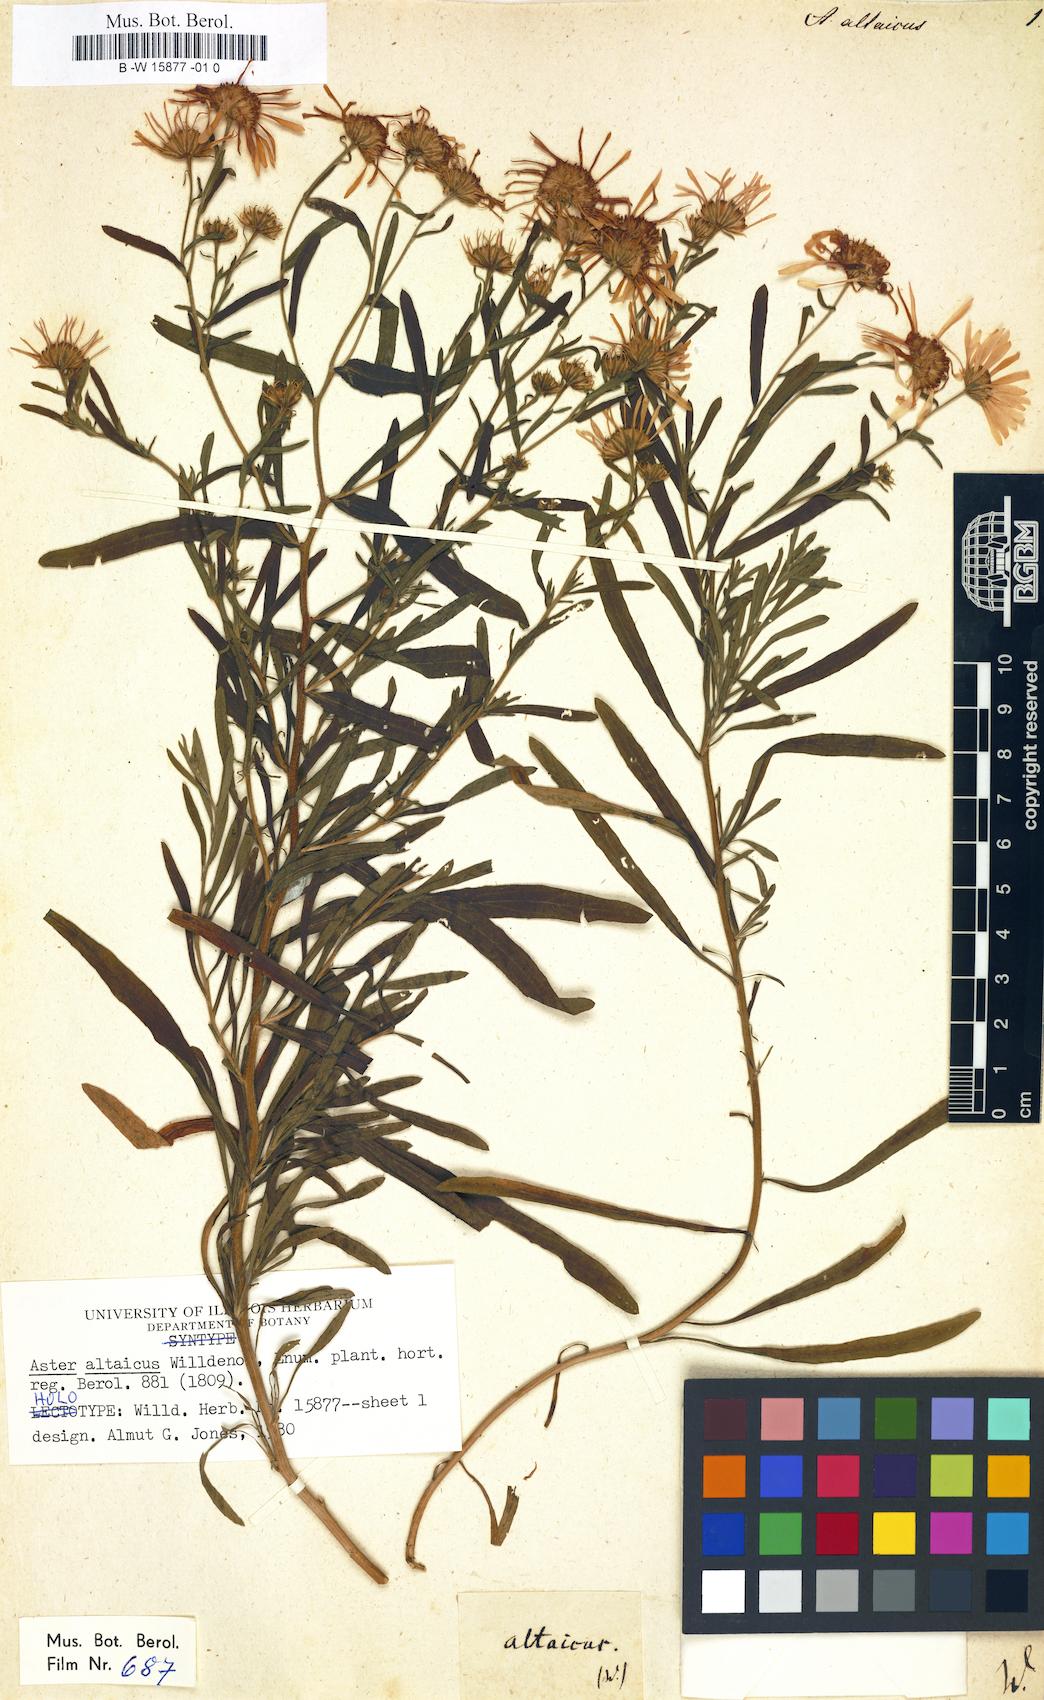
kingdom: Plantae
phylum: Tracheophyta
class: Magnoliopsida
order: Asterales
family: Asteraceae
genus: Heteropappus
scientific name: Heteropappus altaicus
